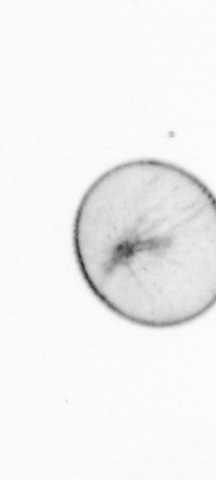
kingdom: Chromista
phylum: Myzozoa
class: Dinophyceae
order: Noctilucales
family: Noctilucaceae
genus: Noctiluca
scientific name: Noctiluca scintillans
